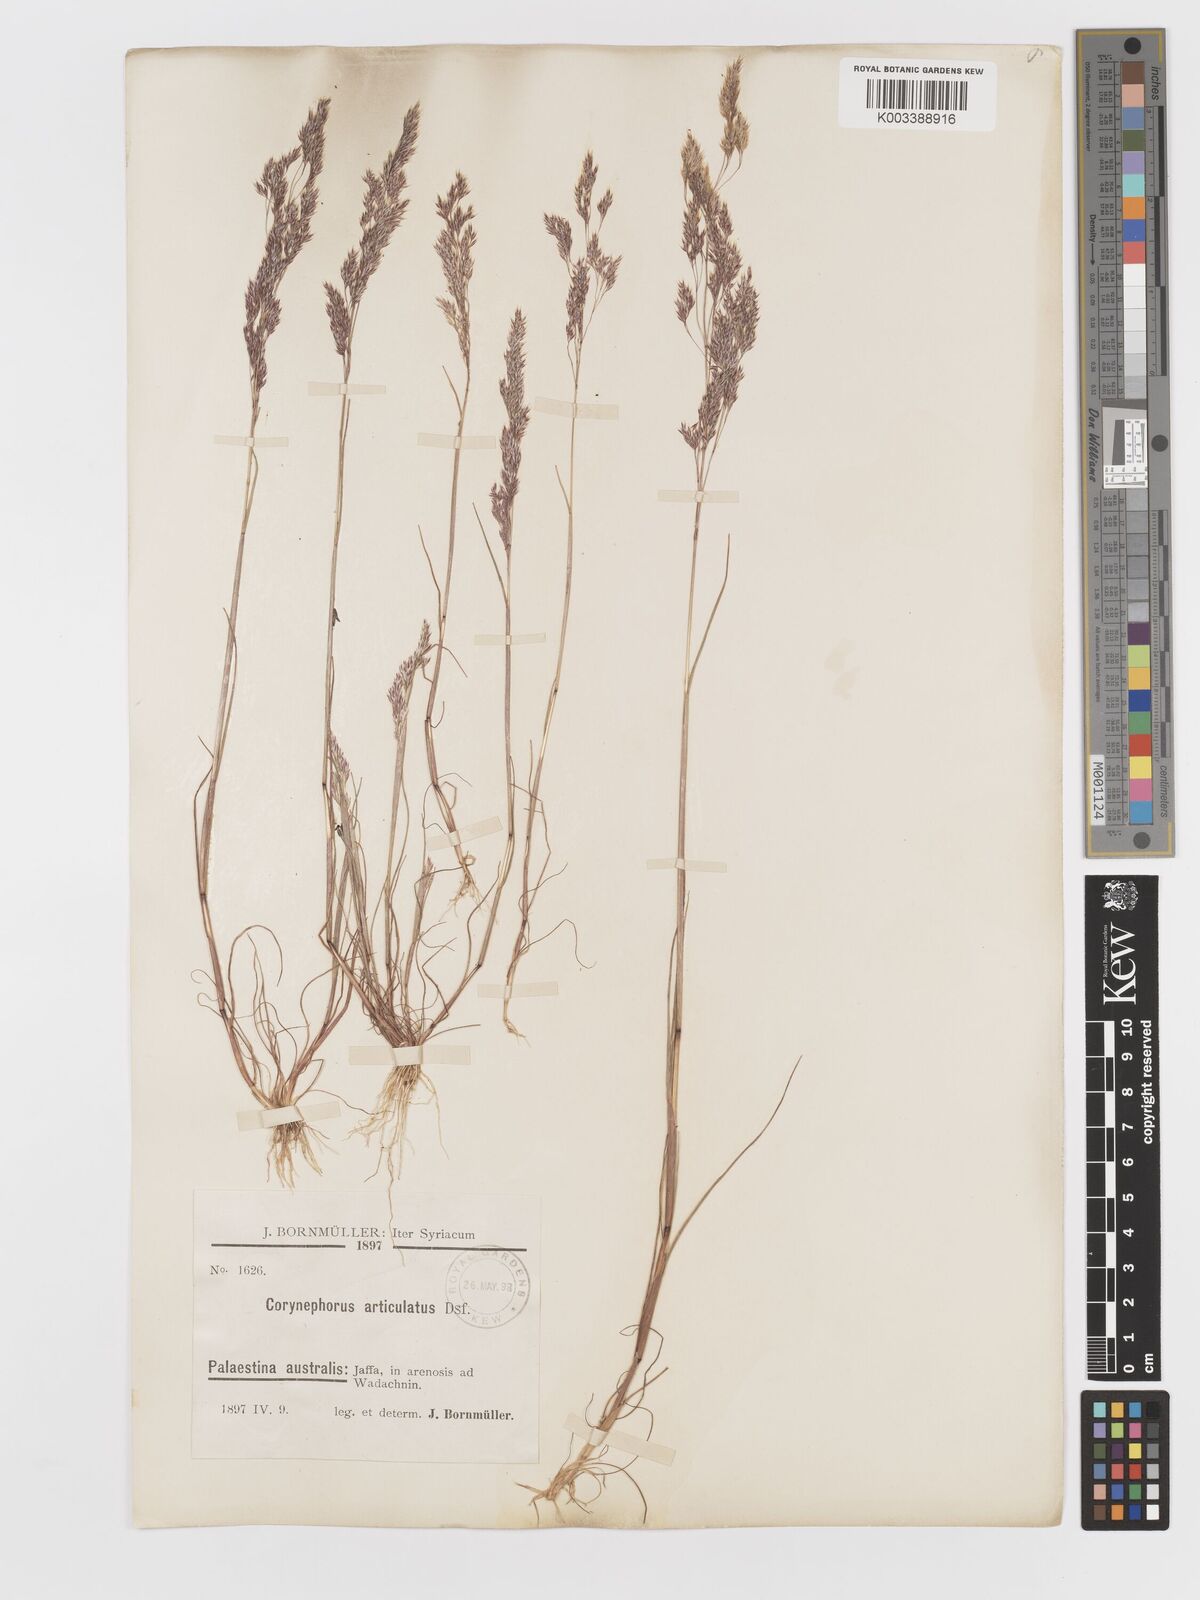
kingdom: Plantae
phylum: Tracheophyta
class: Liliopsida
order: Poales
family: Poaceae
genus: Corynephorus
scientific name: Corynephorus divaricatus
